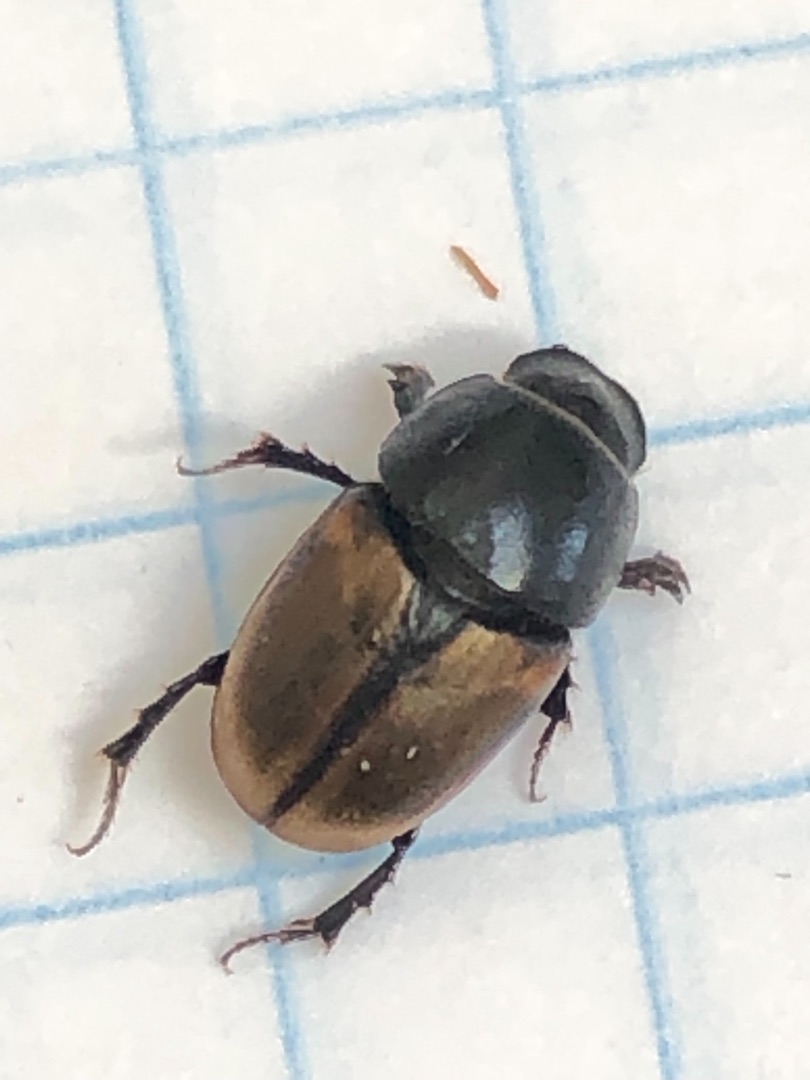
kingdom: Animalia
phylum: Arthropoda
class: Insecta
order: Coleoptera
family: Scarabaeidae
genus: Colobopterus
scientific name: Colobopterus erraticus
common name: Vagabonderende møgbille
